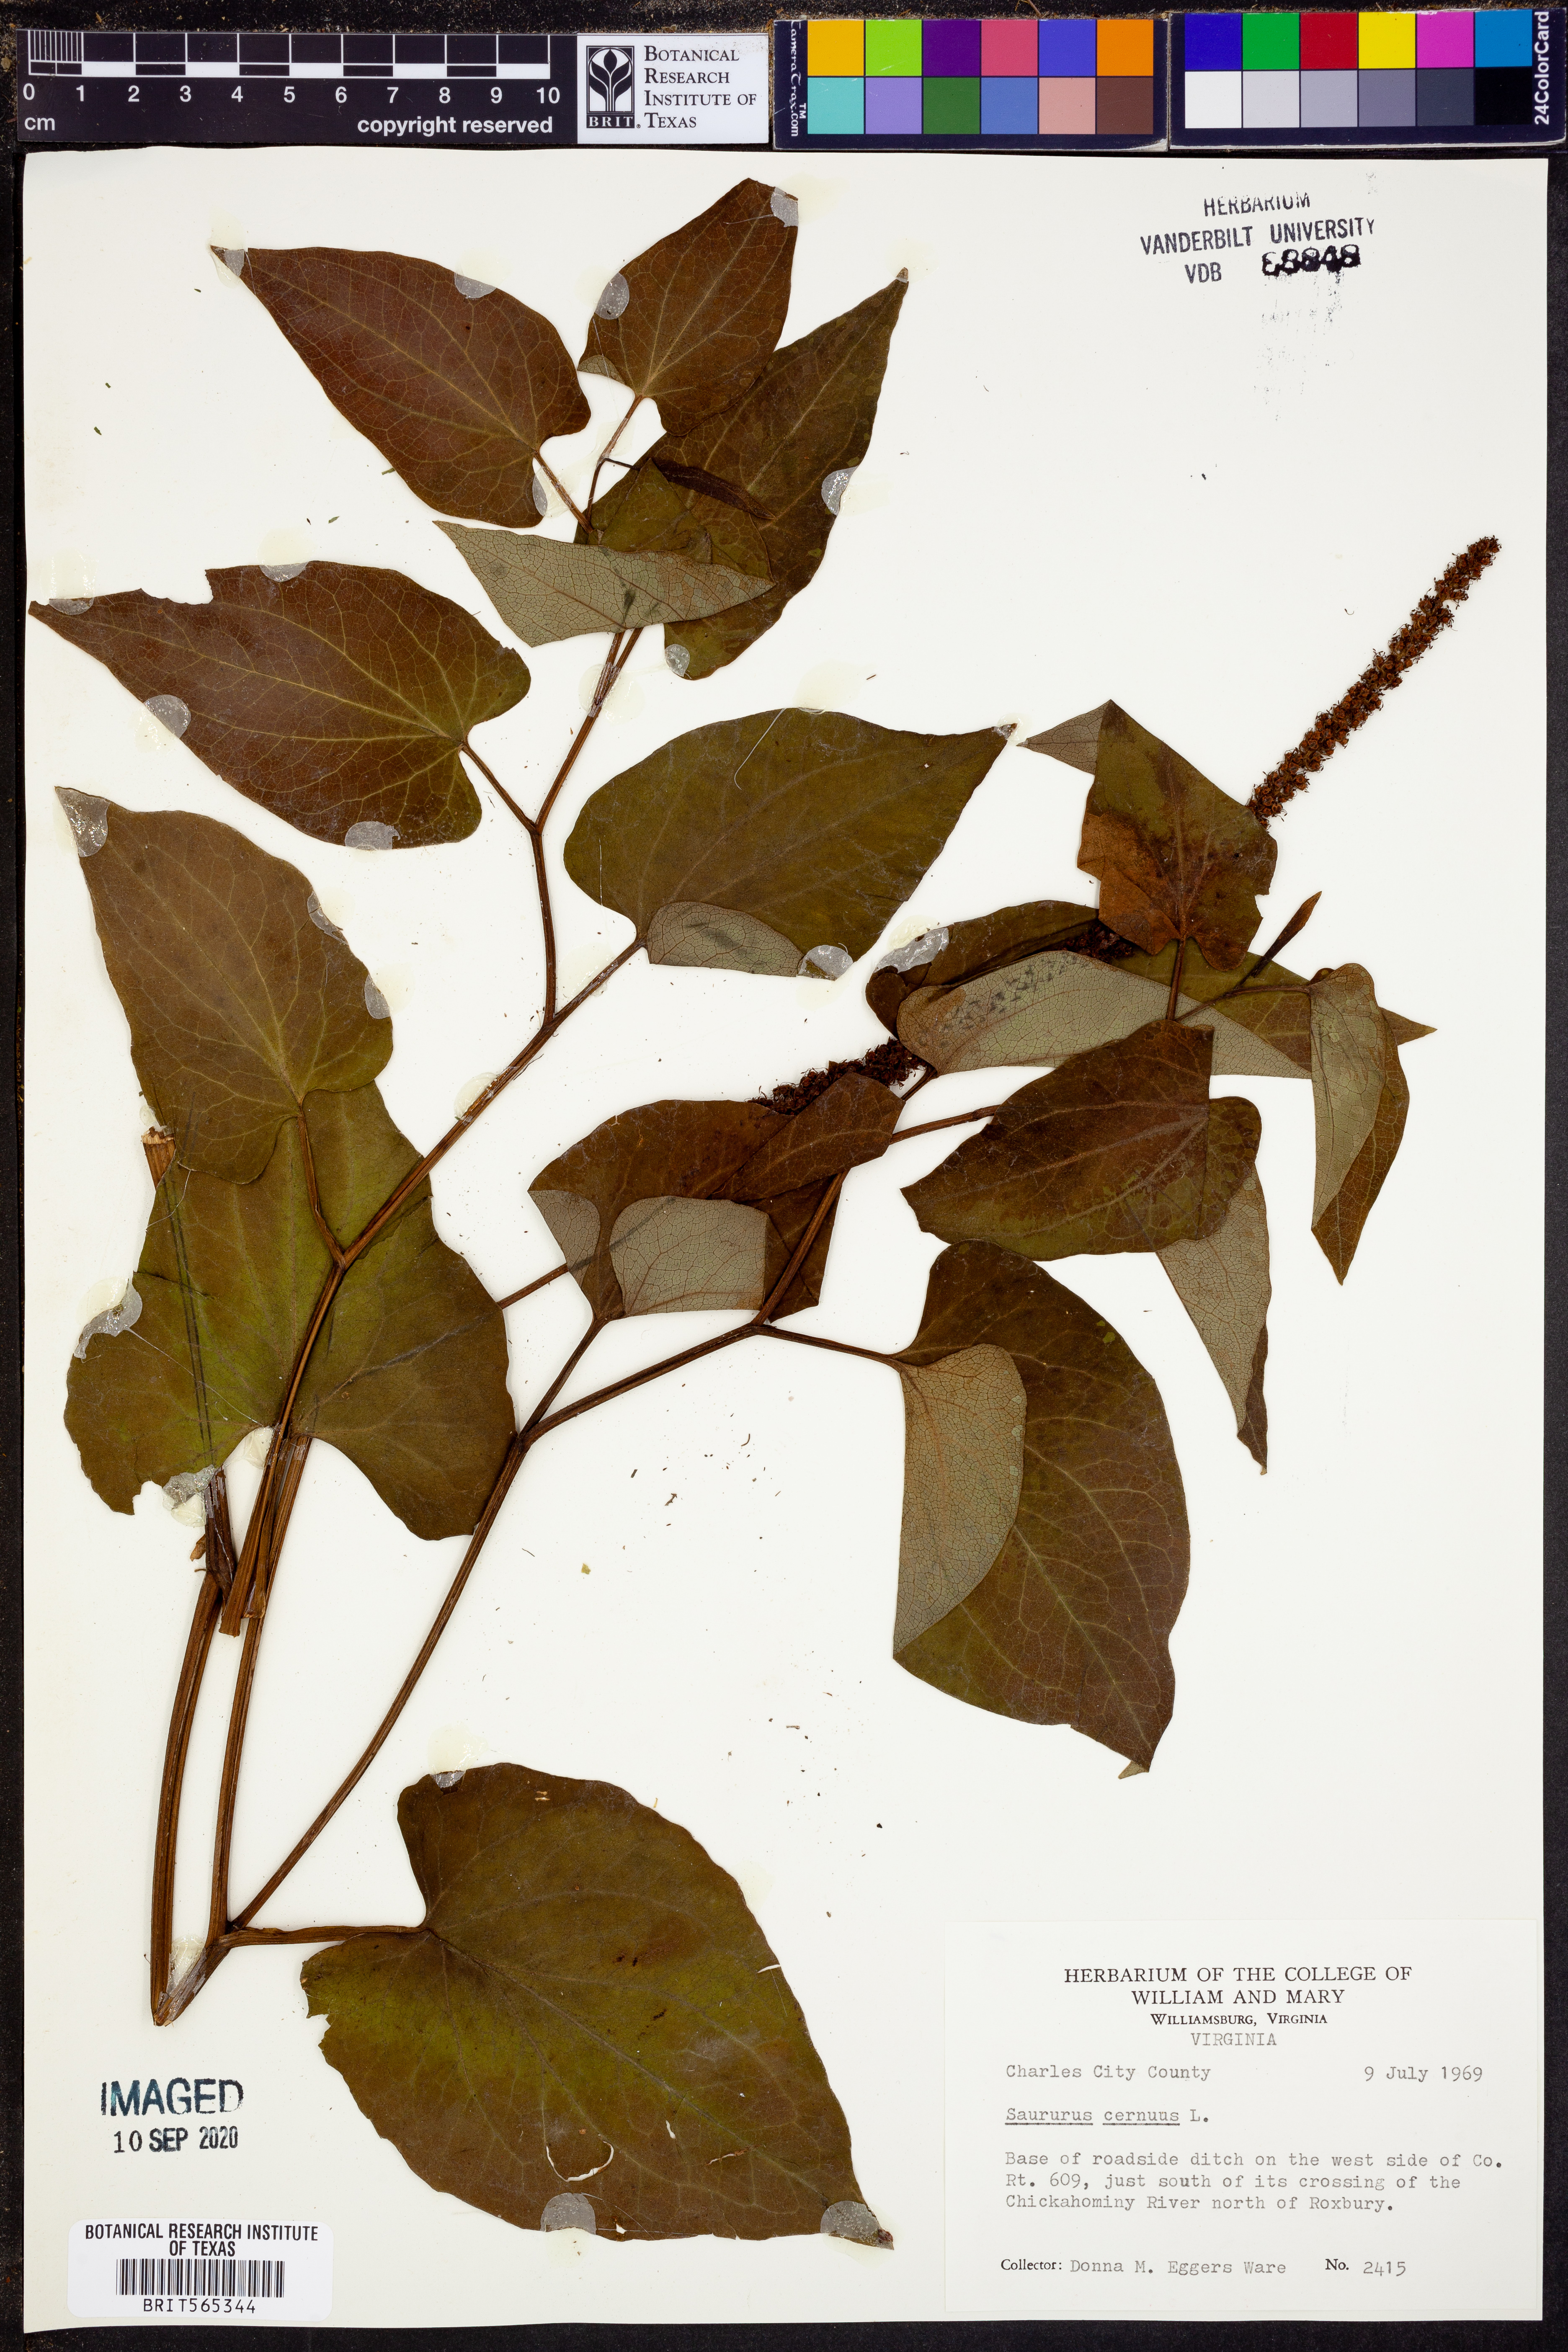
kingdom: Plantae
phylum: Tracheophyta
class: Magnoliopsida
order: Piperales
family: Saururaceae
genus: Saururus
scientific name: Saururus cernuus
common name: Lizard's-tail
